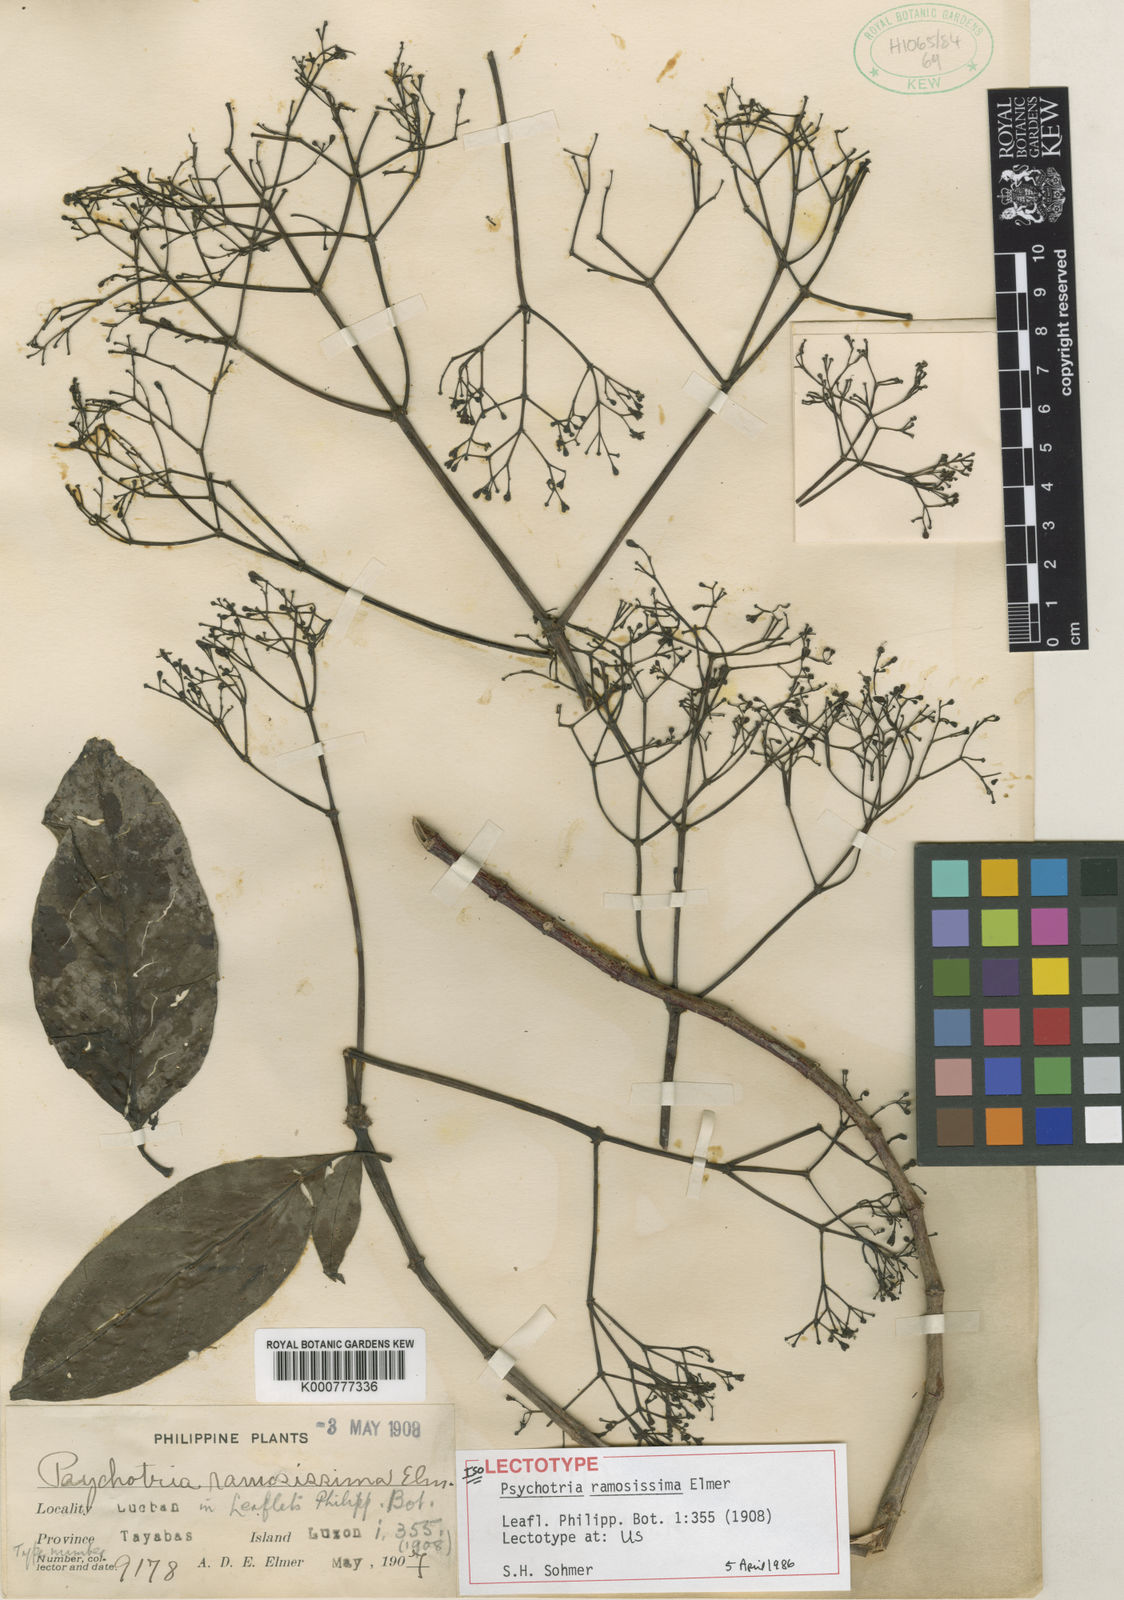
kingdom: Plantae
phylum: Tracheophyta
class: Magnoliopsida
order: Gentianales
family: Rubiaceae
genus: Psychotria
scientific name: Psychotria ramosissima
